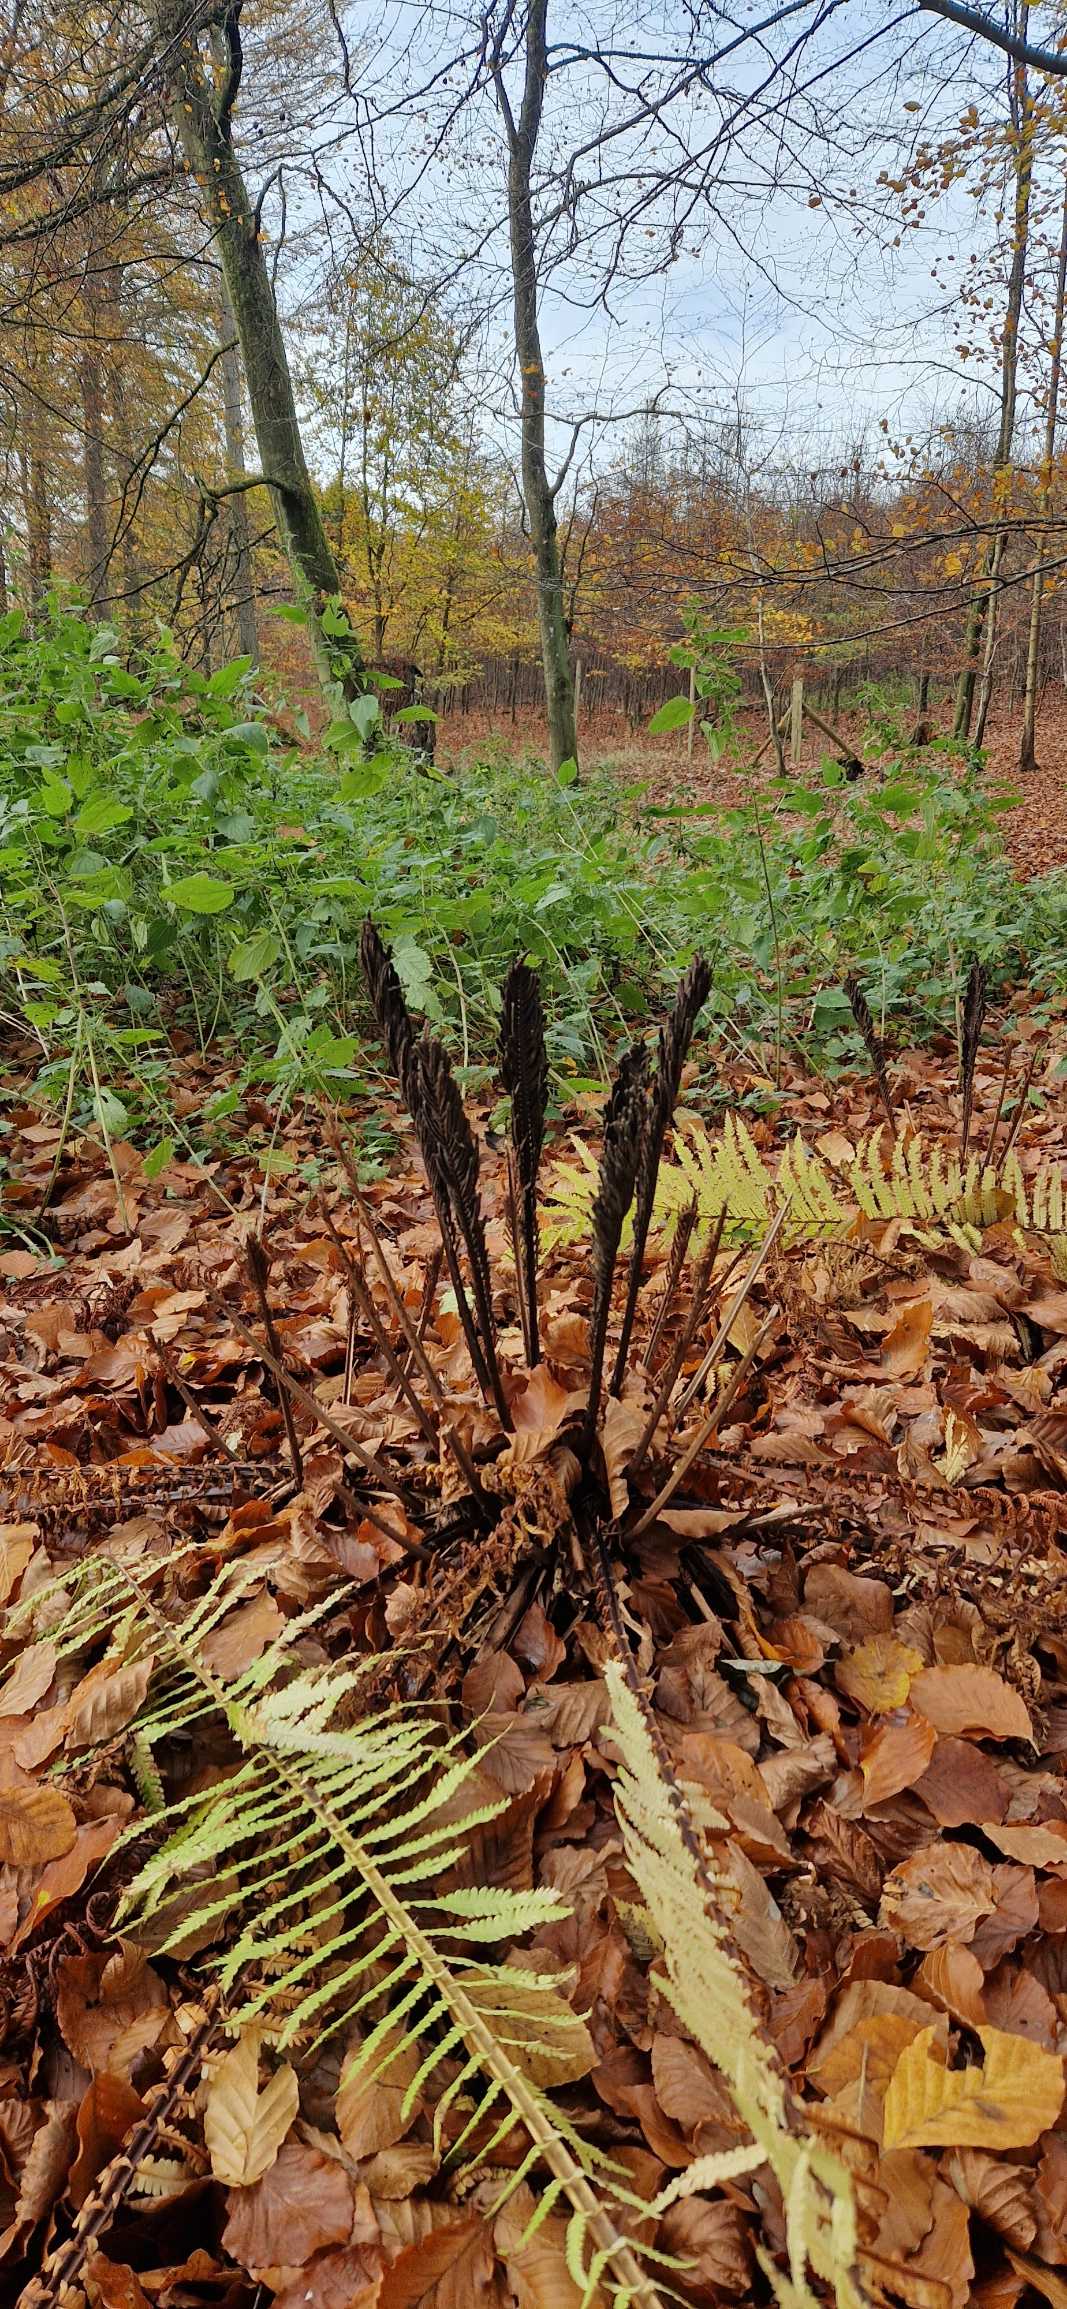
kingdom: Plantae
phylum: Tracheophyta
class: Polypodiopsida
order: Polypodiales
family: Onocleaceae
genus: Matteuccia
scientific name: Matteuccia struthiopteris
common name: Strudsvinge
